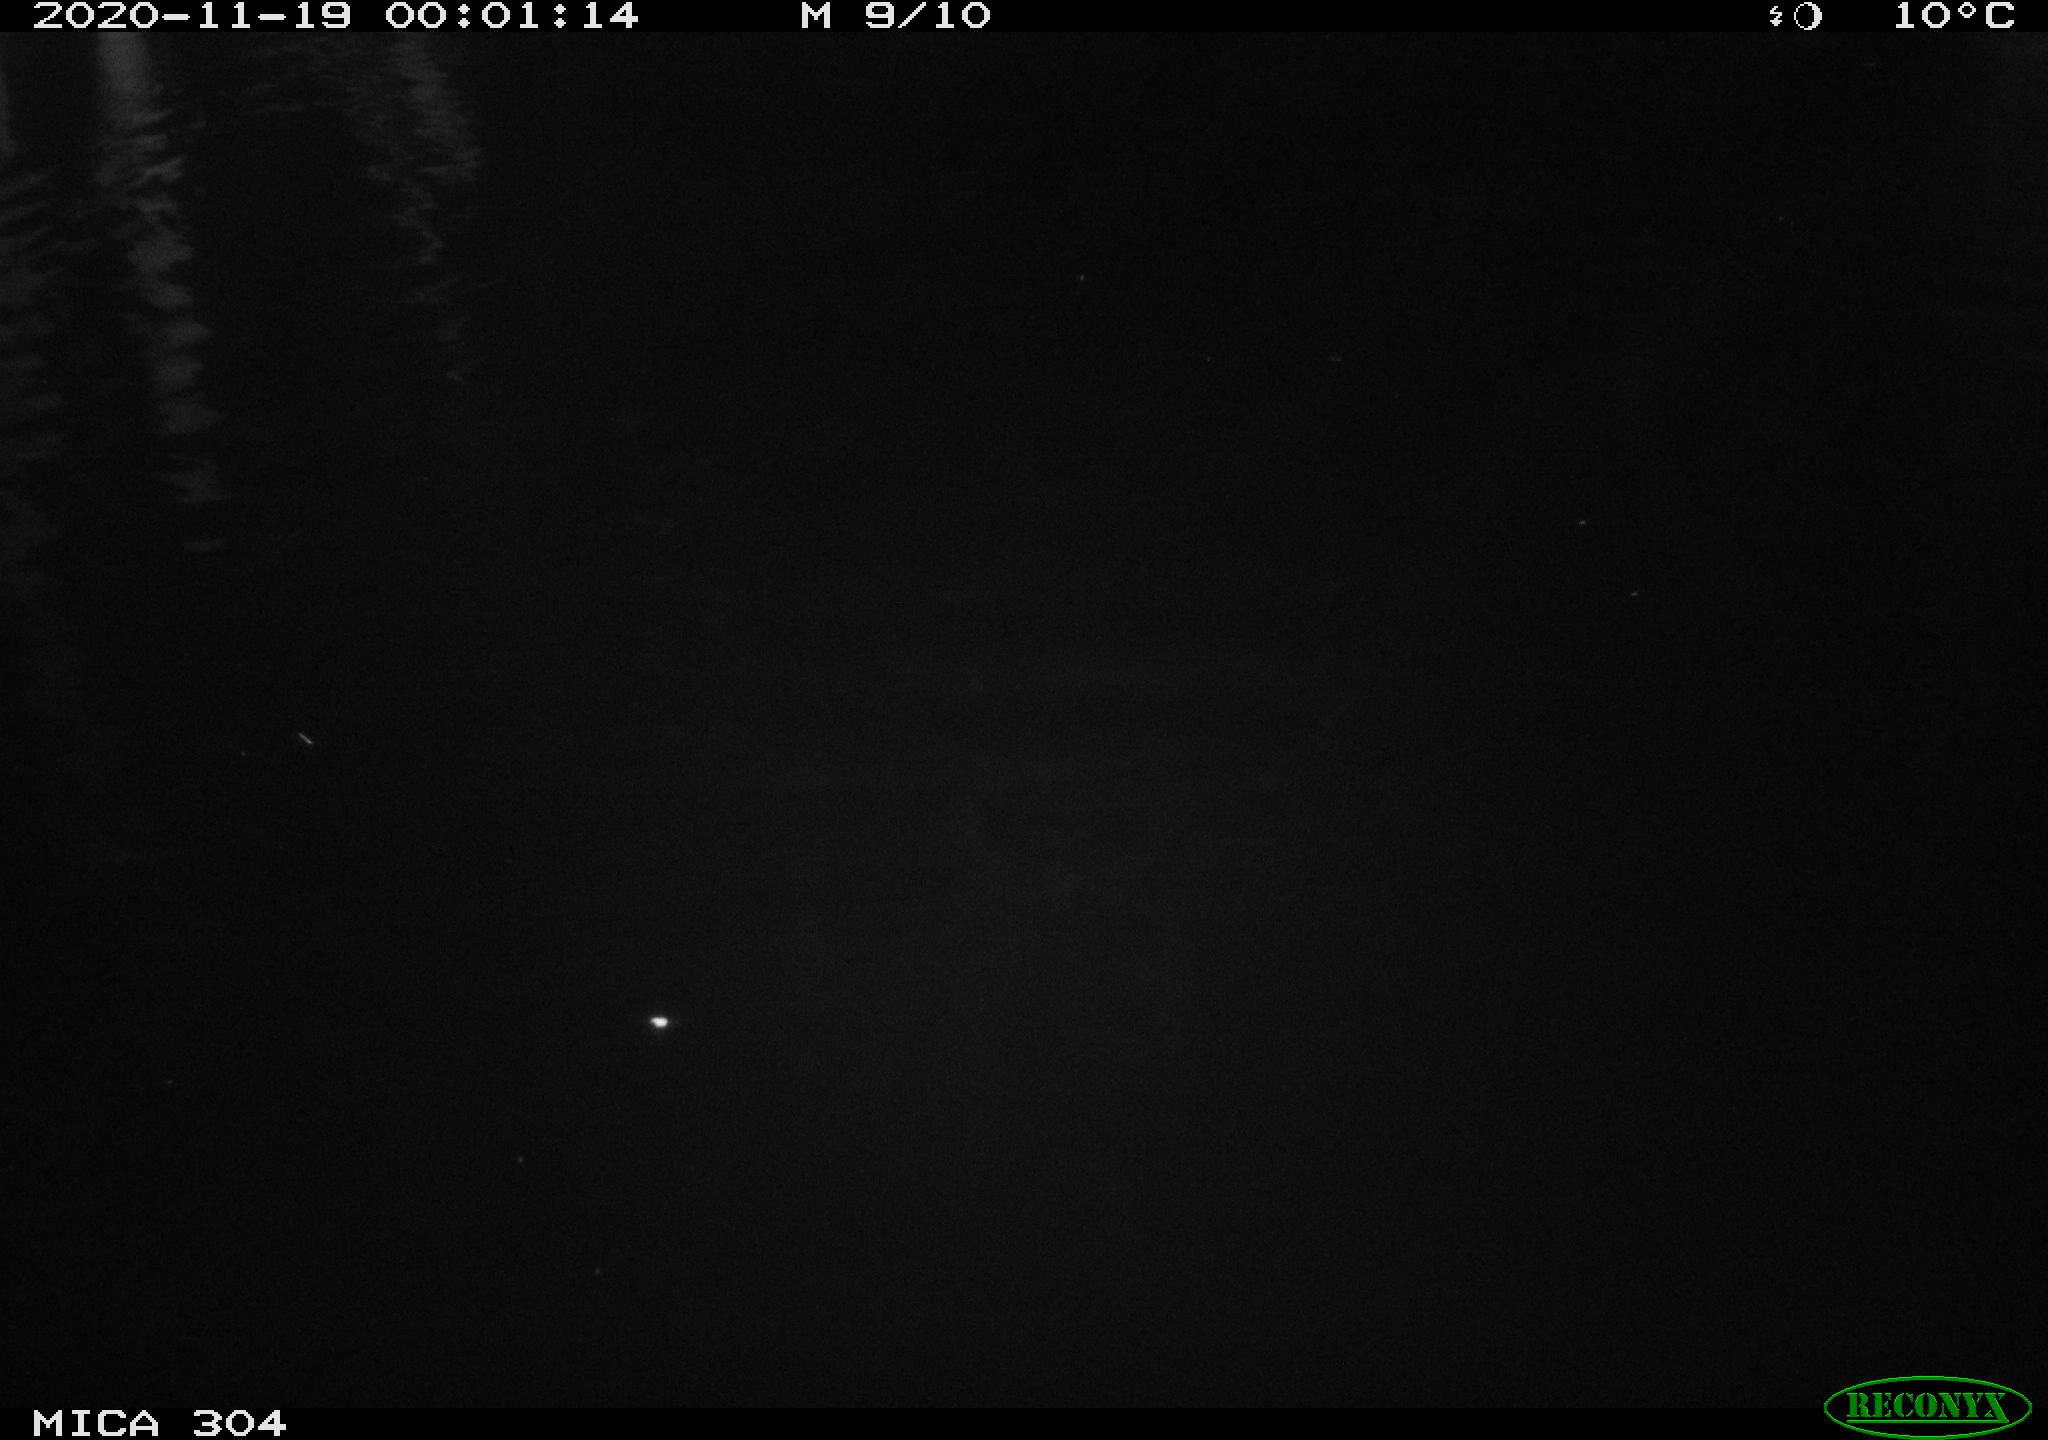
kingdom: Animalia
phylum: Chordata
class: Mammalia
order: Rodentia
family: Muridae
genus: Rattus
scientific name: Rattus norvegicus
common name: Brown rat
